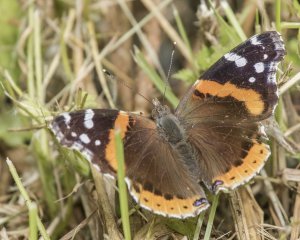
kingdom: Animalia
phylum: Arthropoda
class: Insecta
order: Lepidoptera
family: Nymphalidae
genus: Vanessa
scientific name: Vanessa atalanta
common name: Red Admiral
